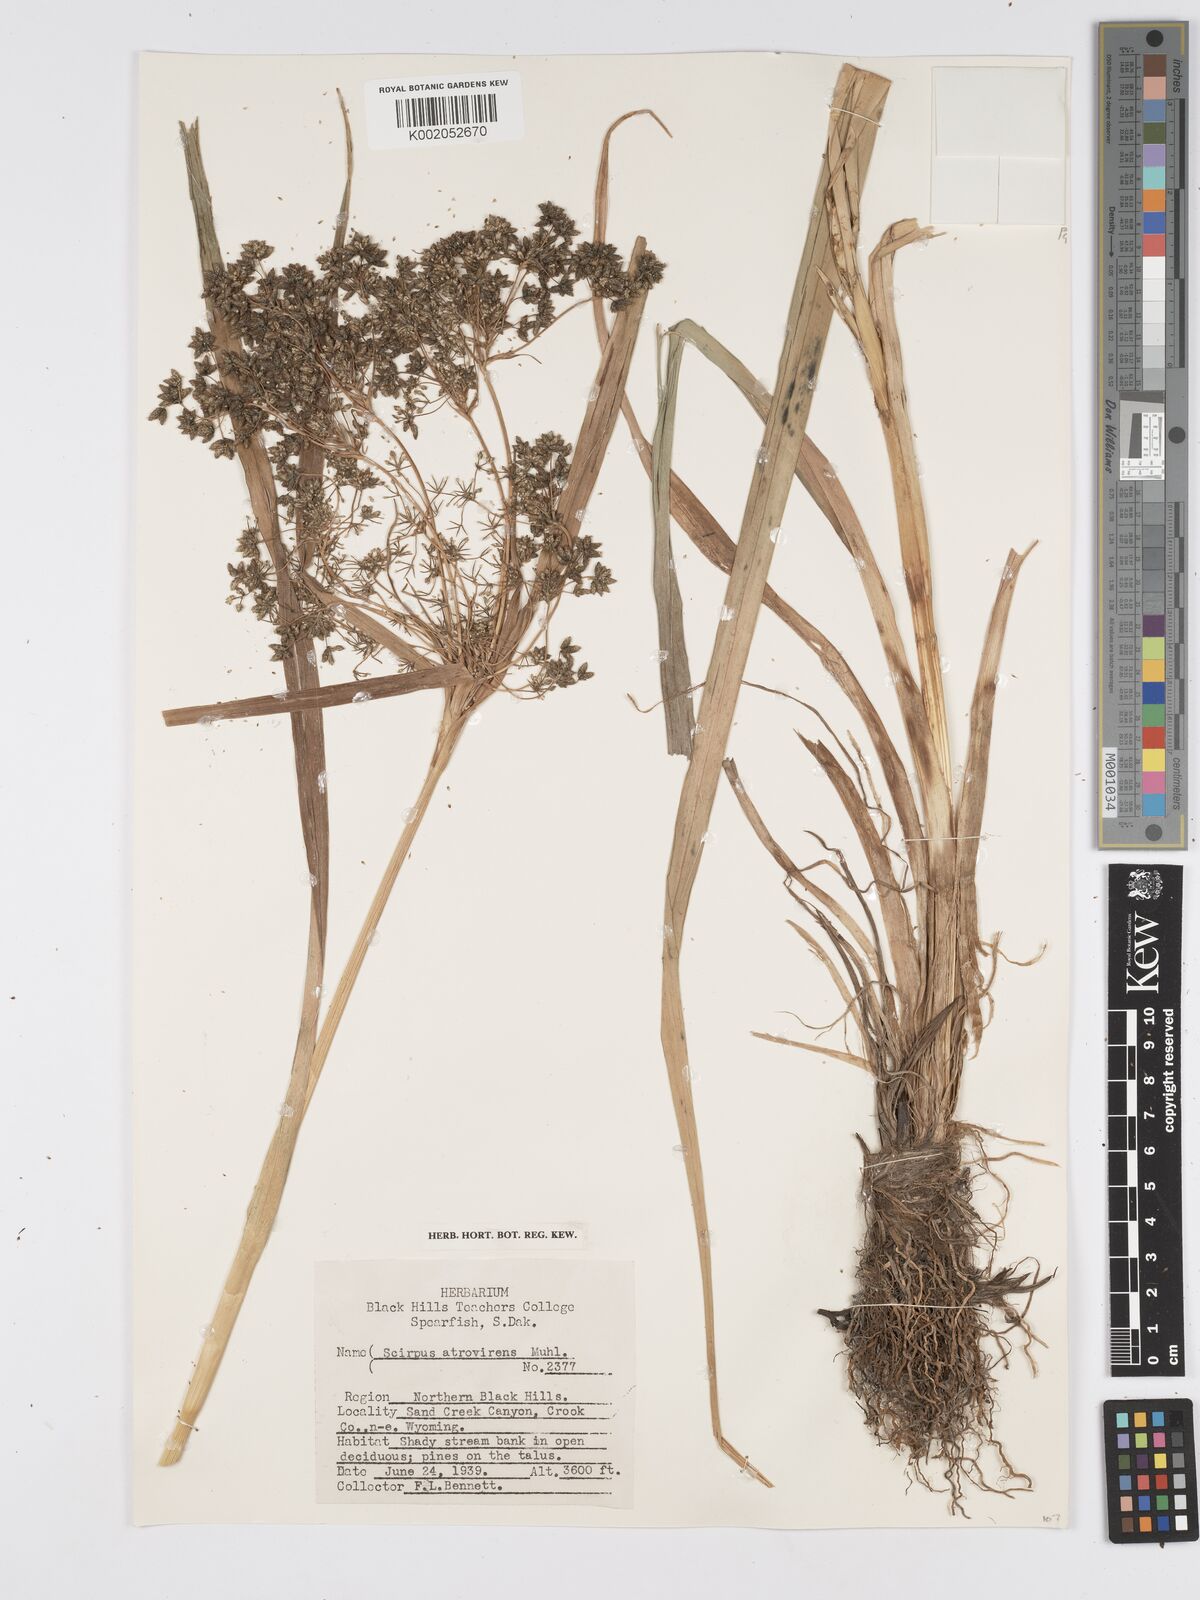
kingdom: Plantae
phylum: Tracheophyta
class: Liliopsida
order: Poales
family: Cyperaceae
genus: Scirpus
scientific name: Scirpus atrovirens
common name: Black bulrush
